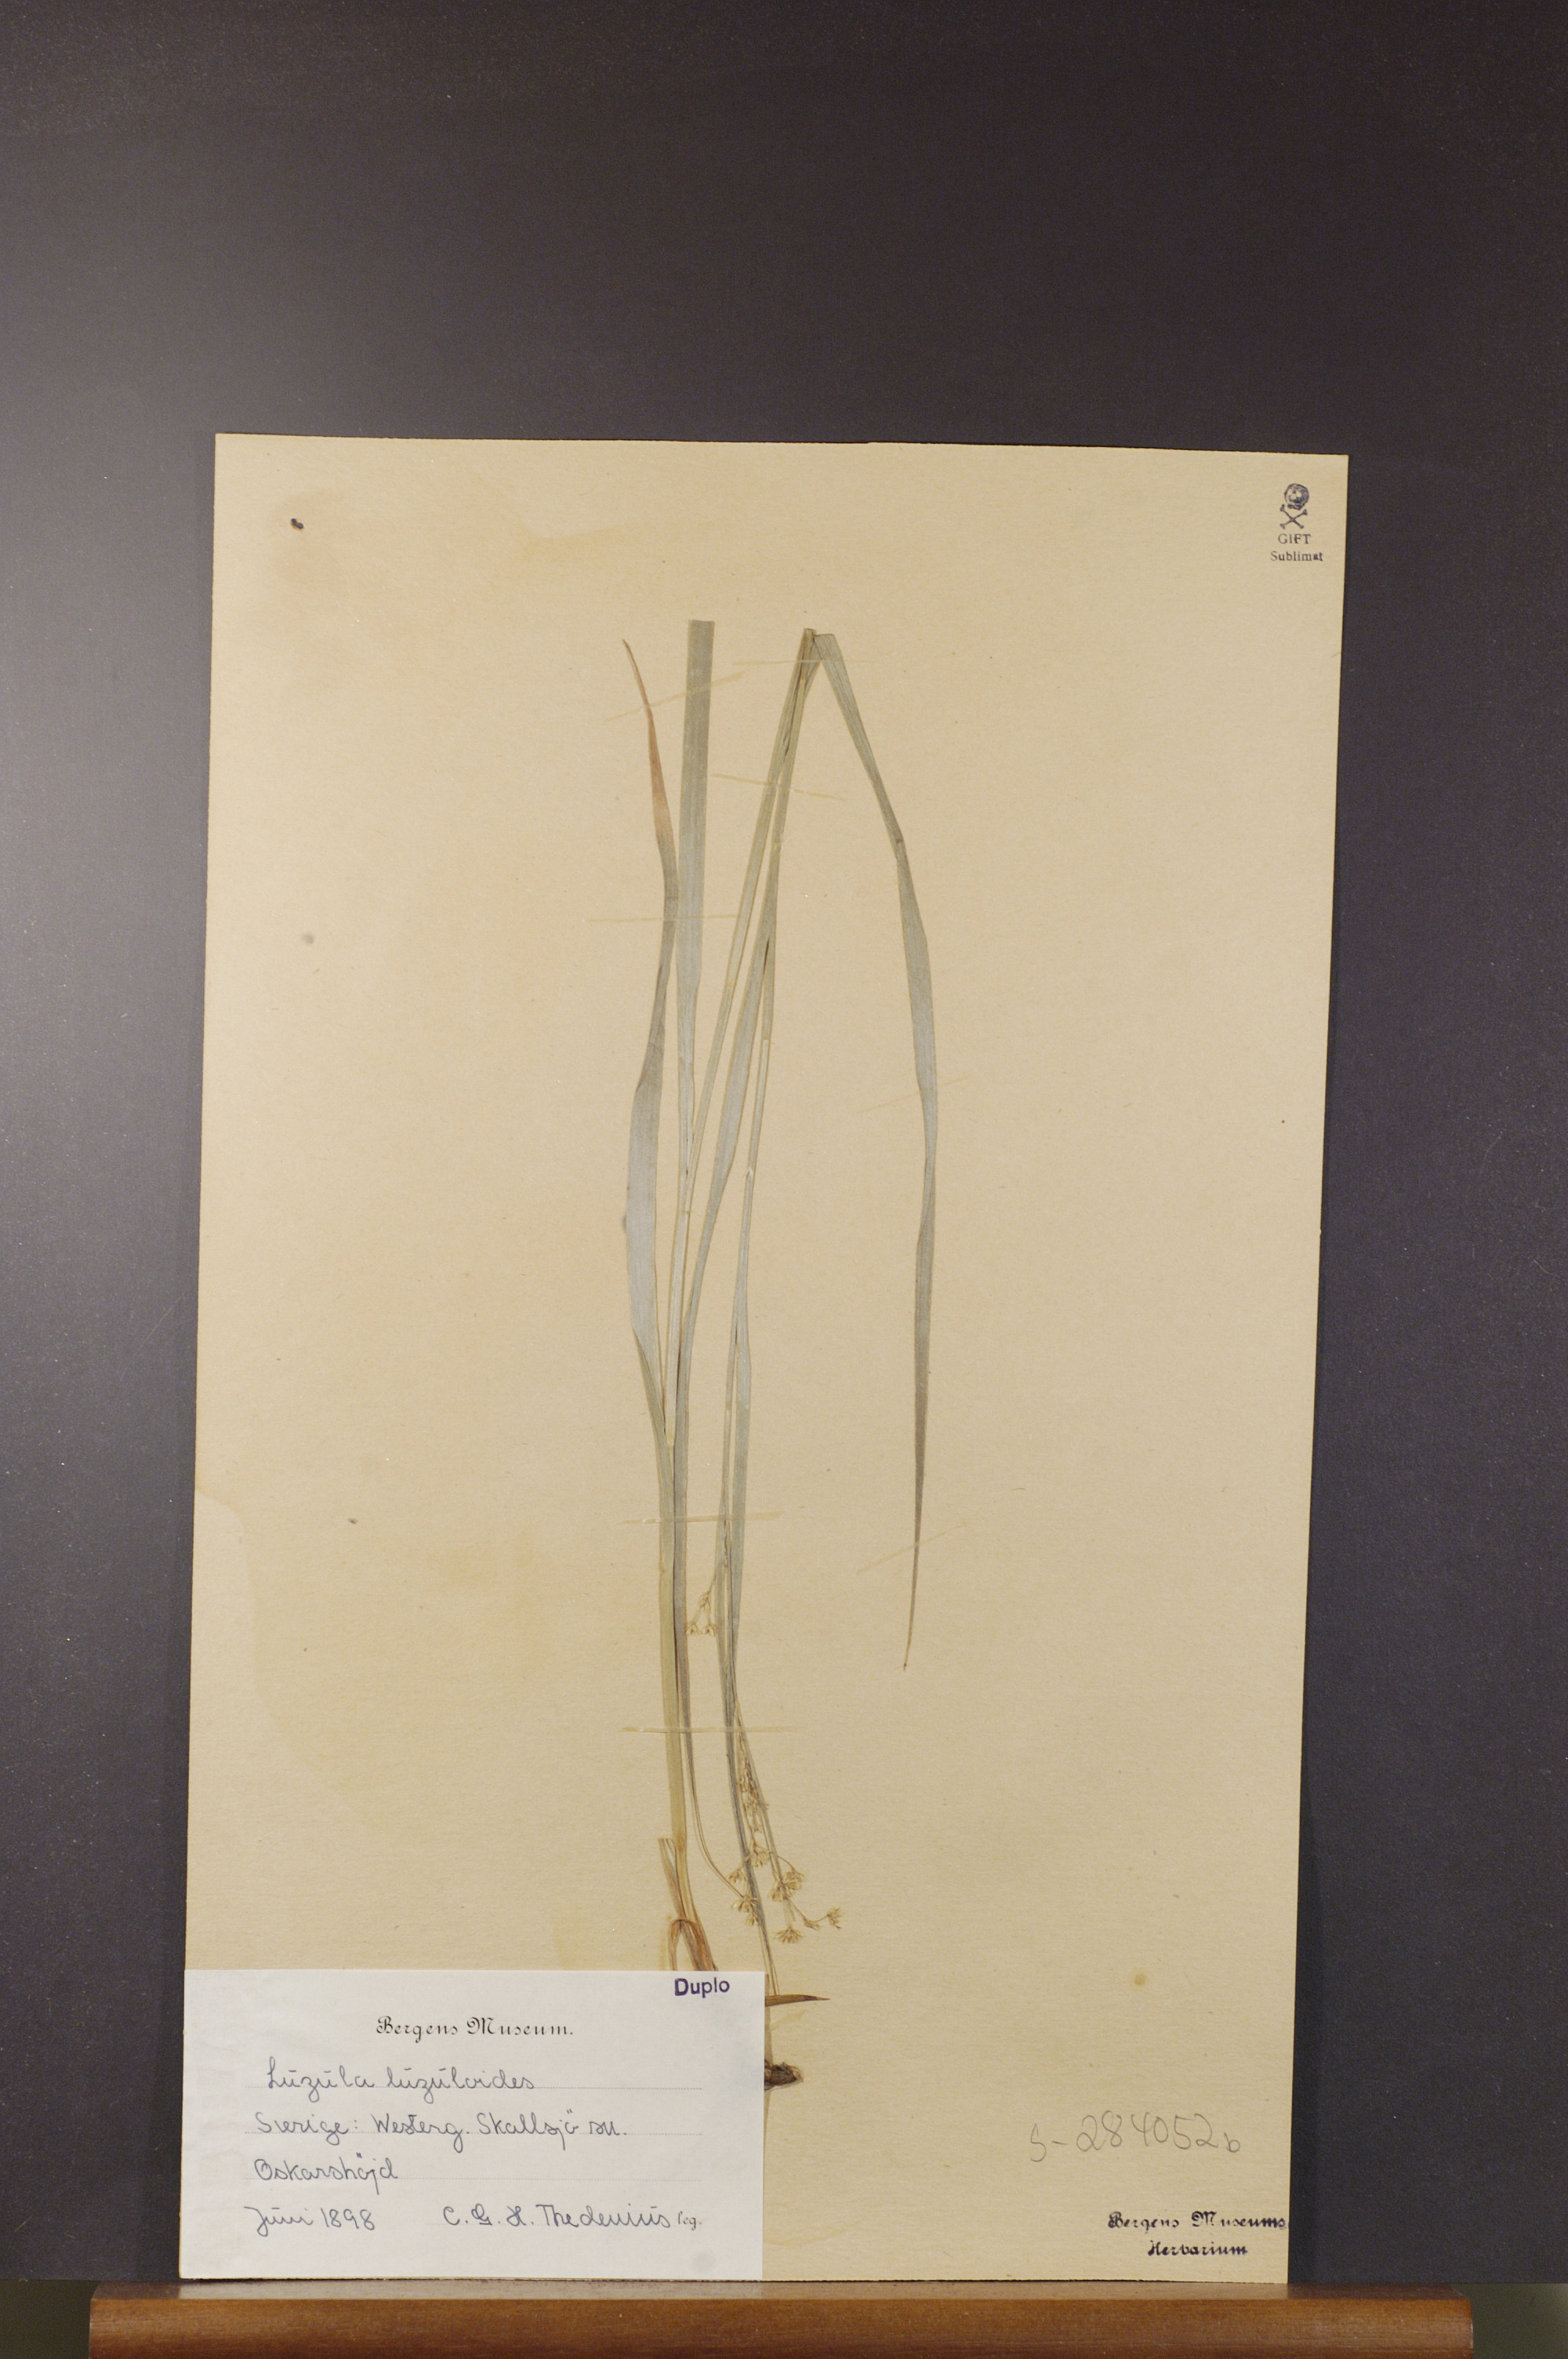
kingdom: Plantae
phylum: Tracheophyta
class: Liliopsida
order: Poales
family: Juncaceae
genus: Luzula
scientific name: Luzula luzuloides
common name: White wood-rush
